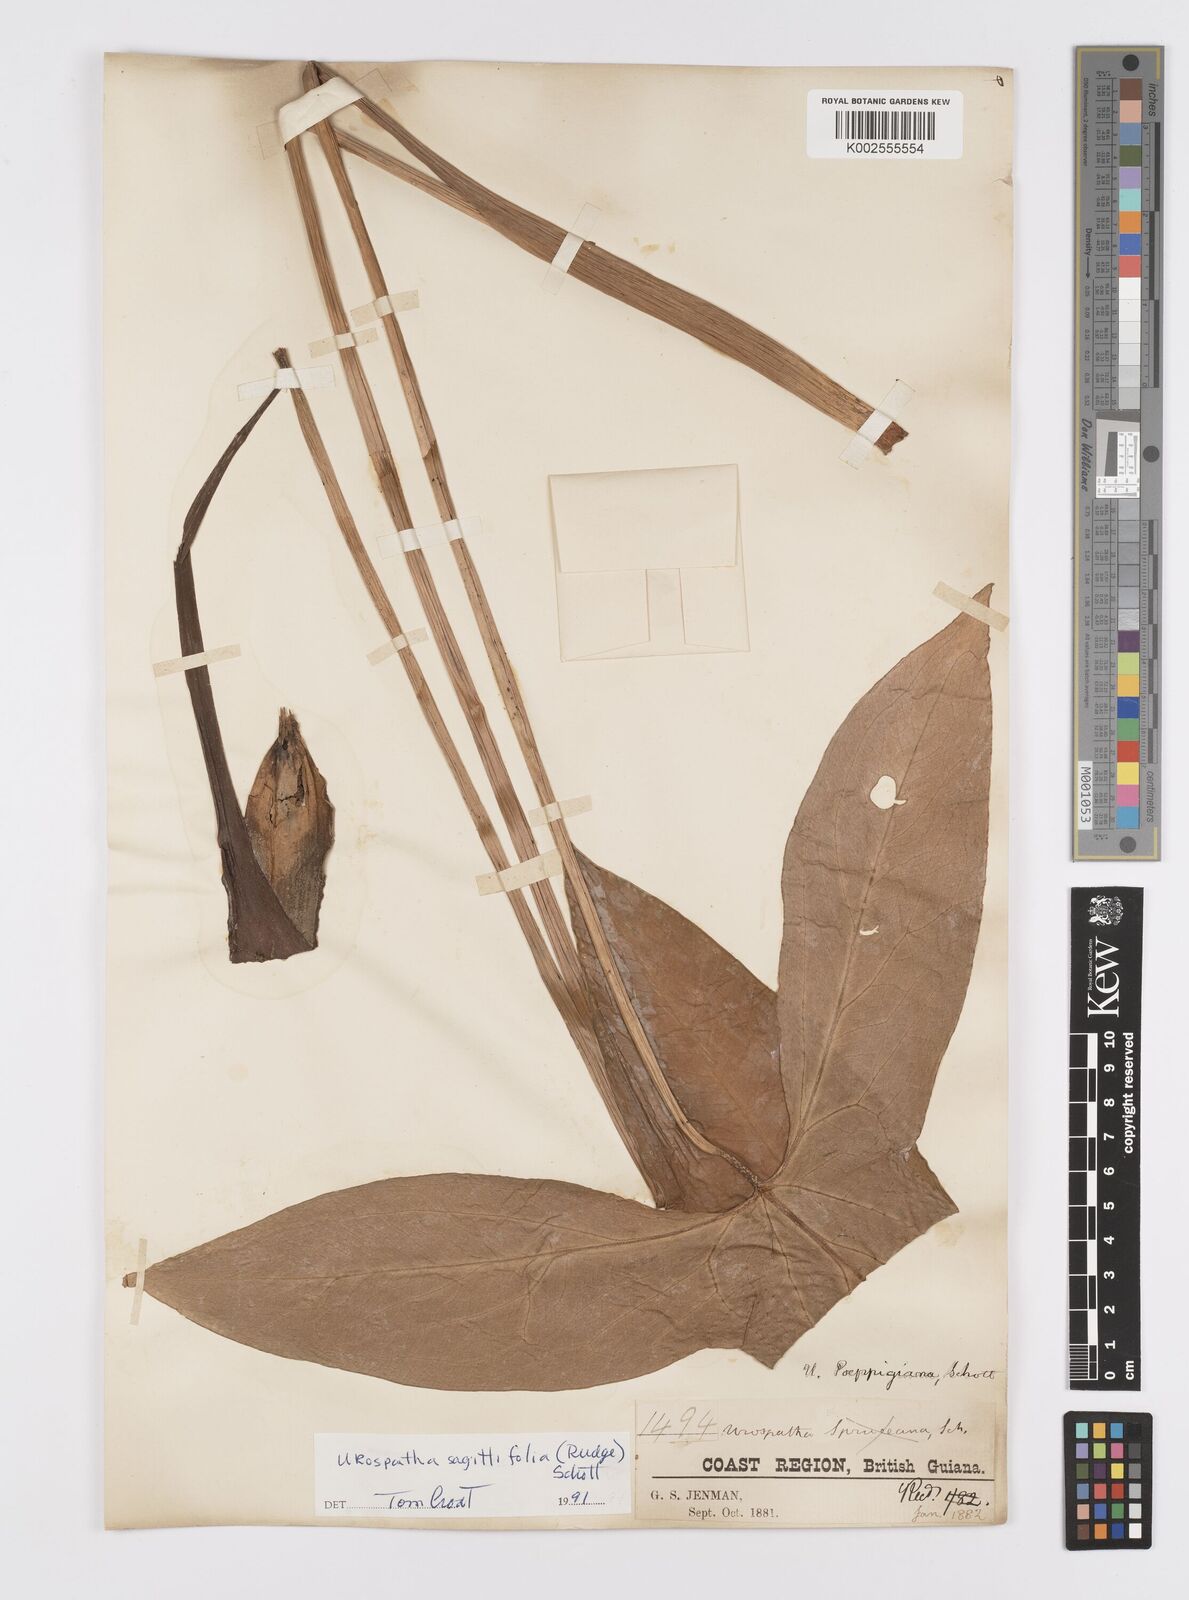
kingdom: Plantae
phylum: Tracheophyta
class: Liliopsida
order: Alismatales
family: Araceae
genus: Urospatha
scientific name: Urospatha sagittifolia
